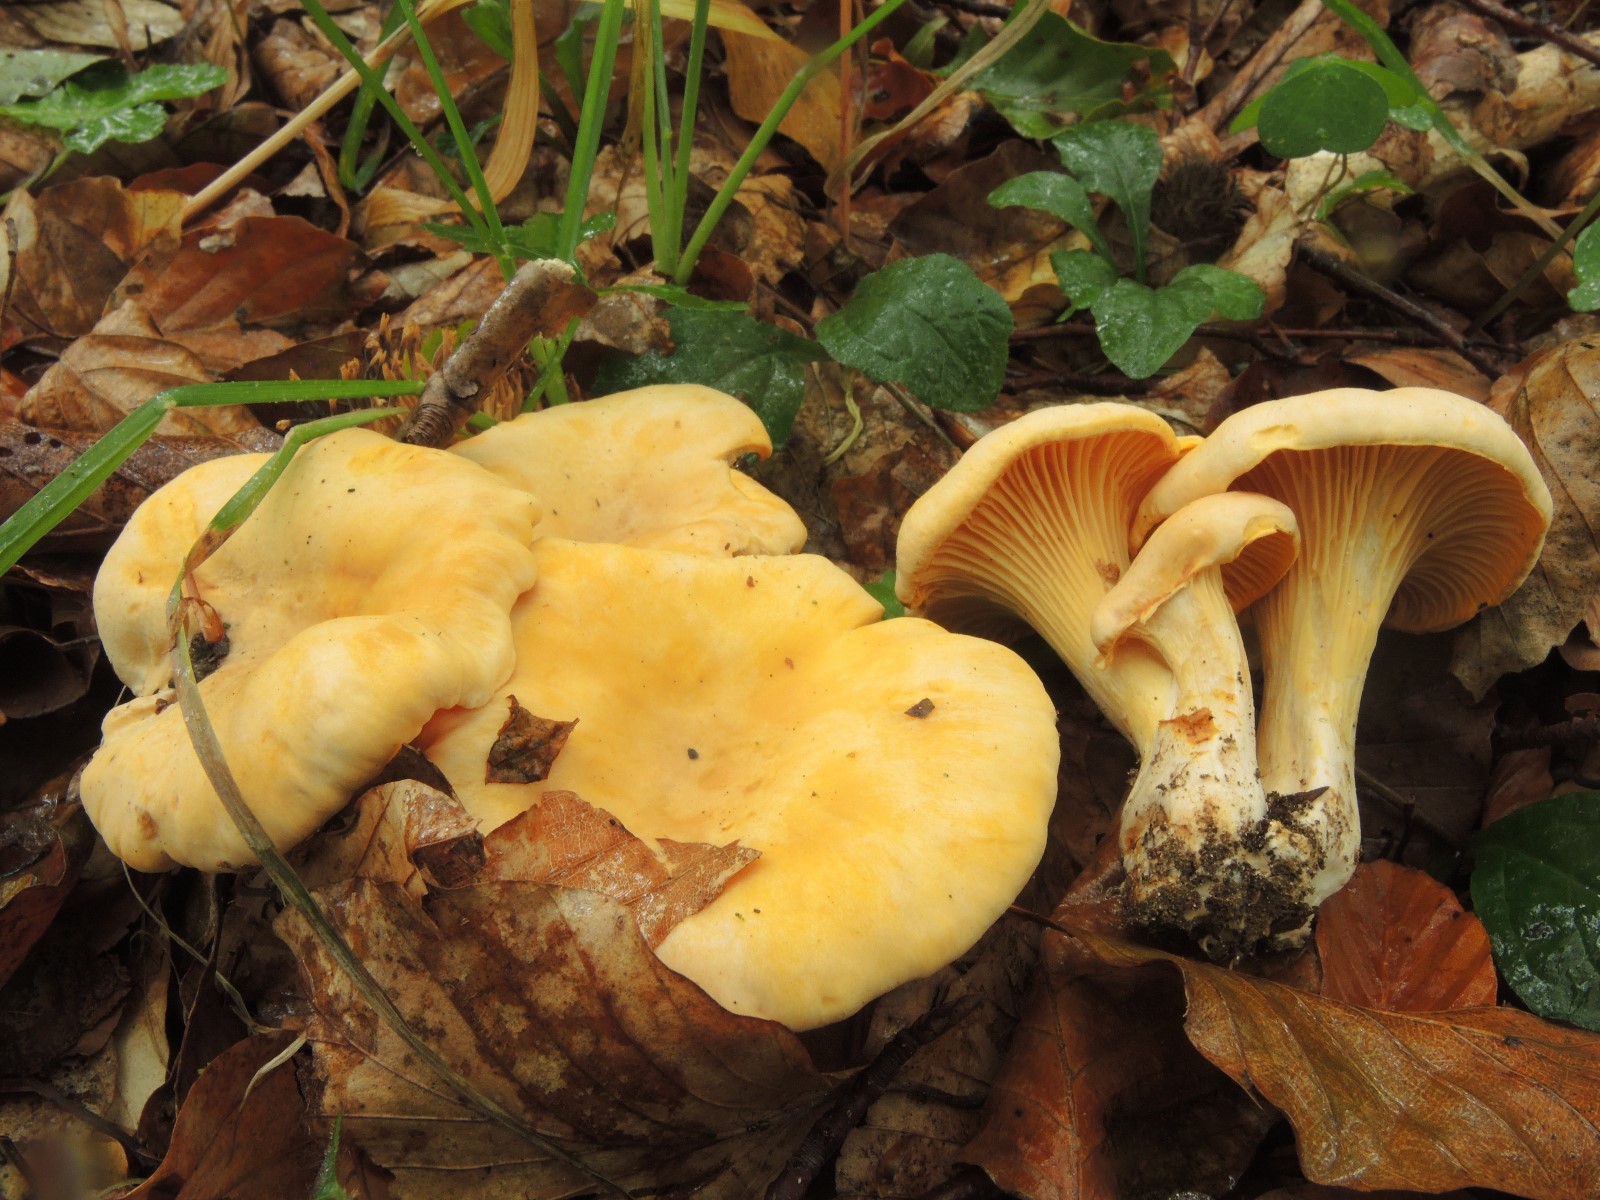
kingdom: Fungi
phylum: Basidiomycota
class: Agaricomycetes
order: Cantharellales
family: Hydnaceae
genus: Cantharellus
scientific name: Cantharellus pallens
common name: bleg kantarel
